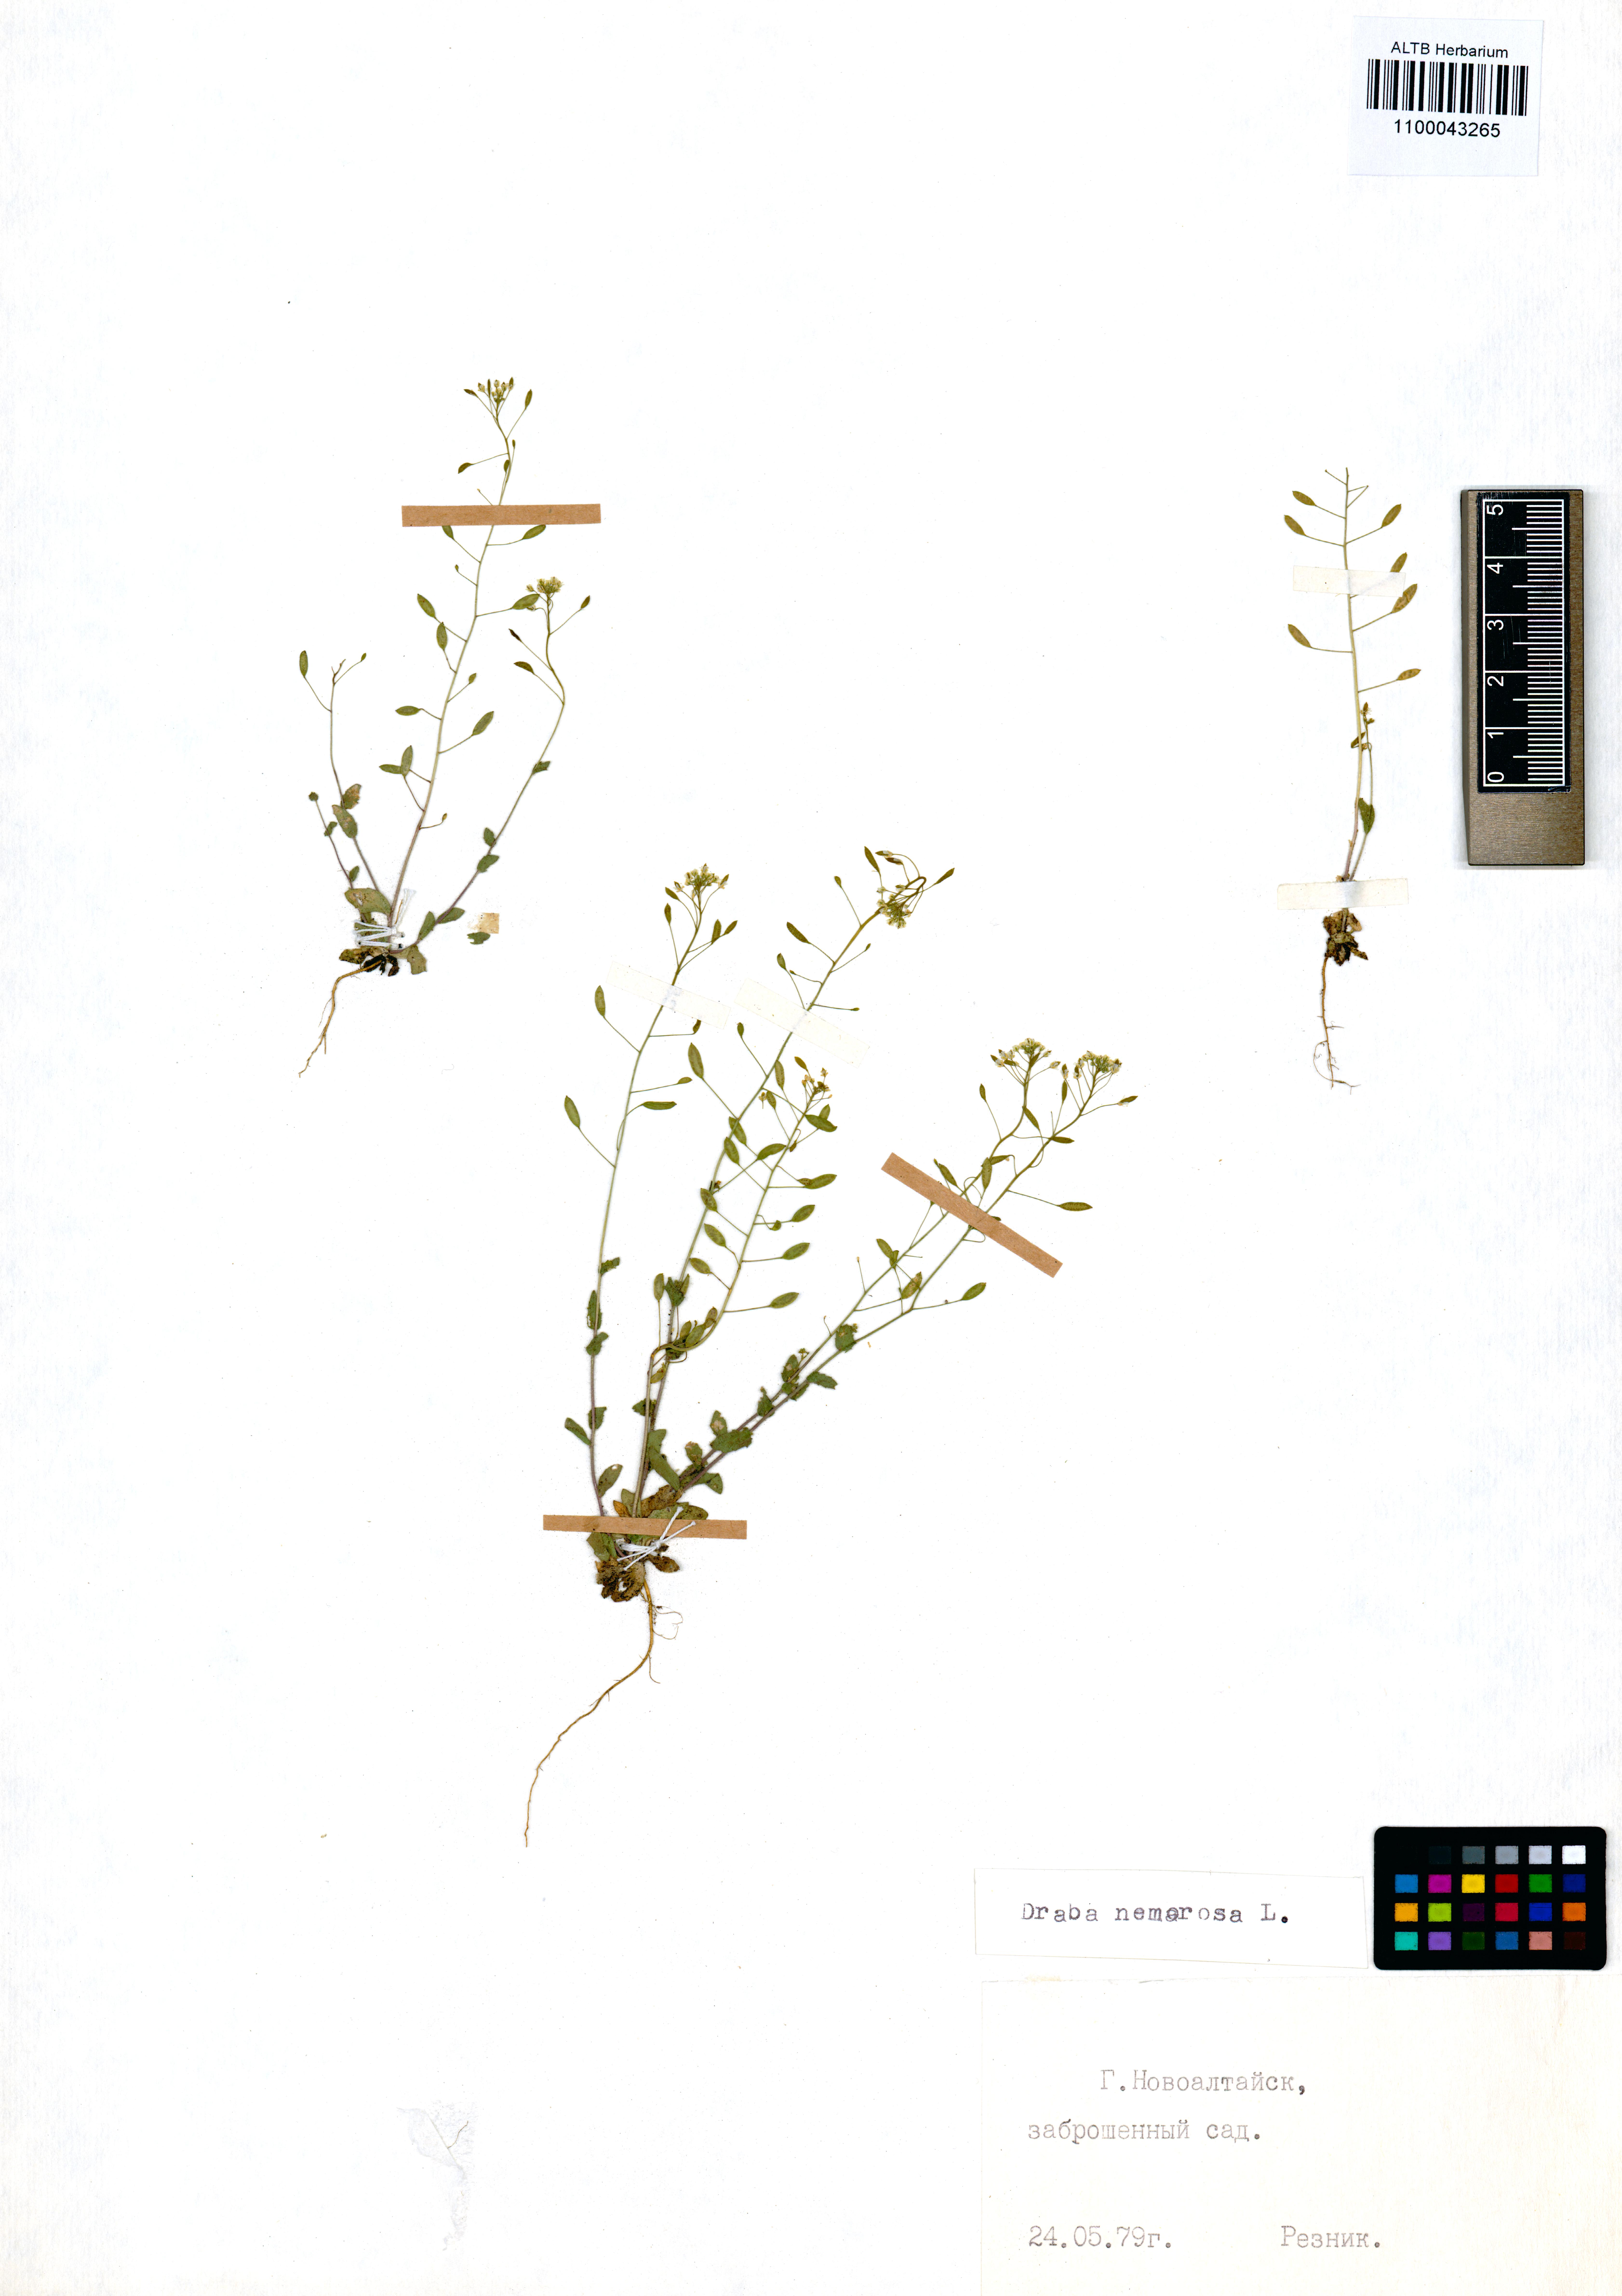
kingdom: Plantae
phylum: Tracheophyta
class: Magnoliopsida
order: Brassicales
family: Brassicaceae
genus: Draba
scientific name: Draba nemorosa
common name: Wood whitlow-grass
